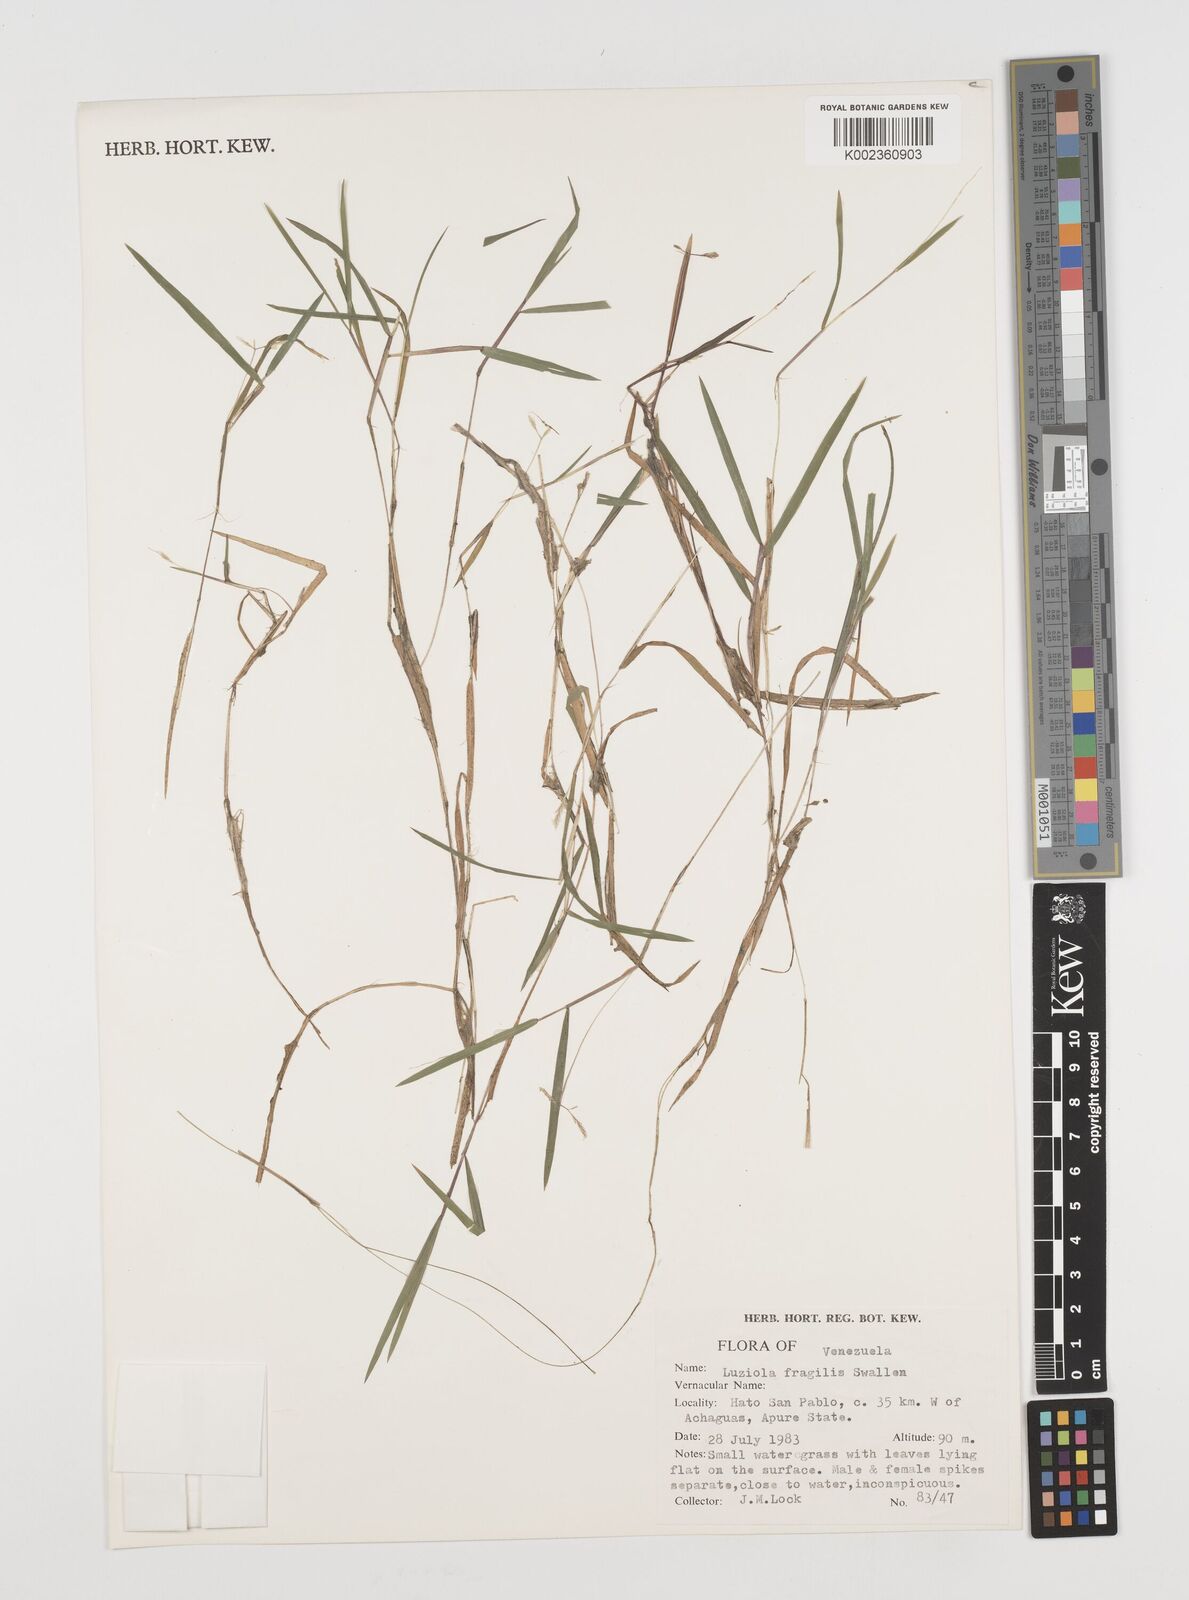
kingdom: Plantae
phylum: Tracheophyta
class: Liliopsida
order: Poales
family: Poaceae
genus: Luziola
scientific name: Luziola fragilis
